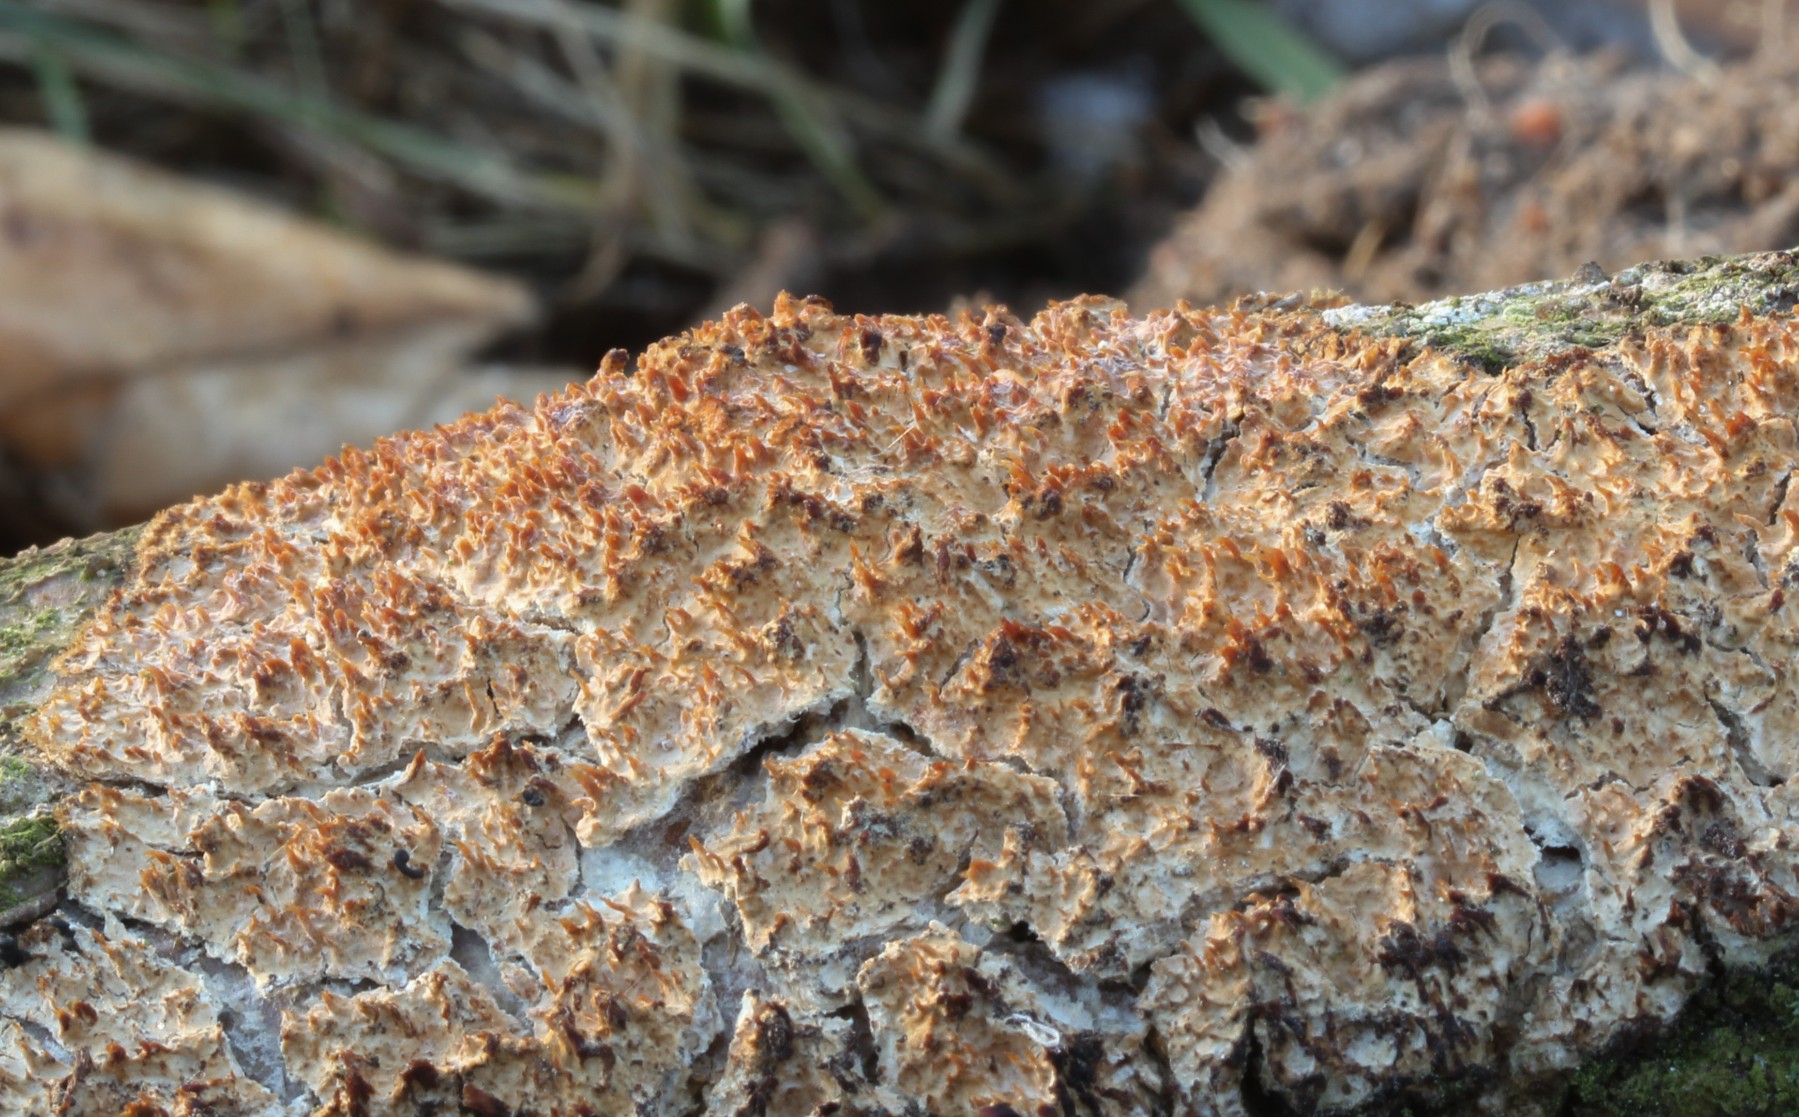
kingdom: Fungi
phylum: Basidiomycota
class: Agaricomycetes
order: Corticiales
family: Corticiaceae
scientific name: Corticiaceae
